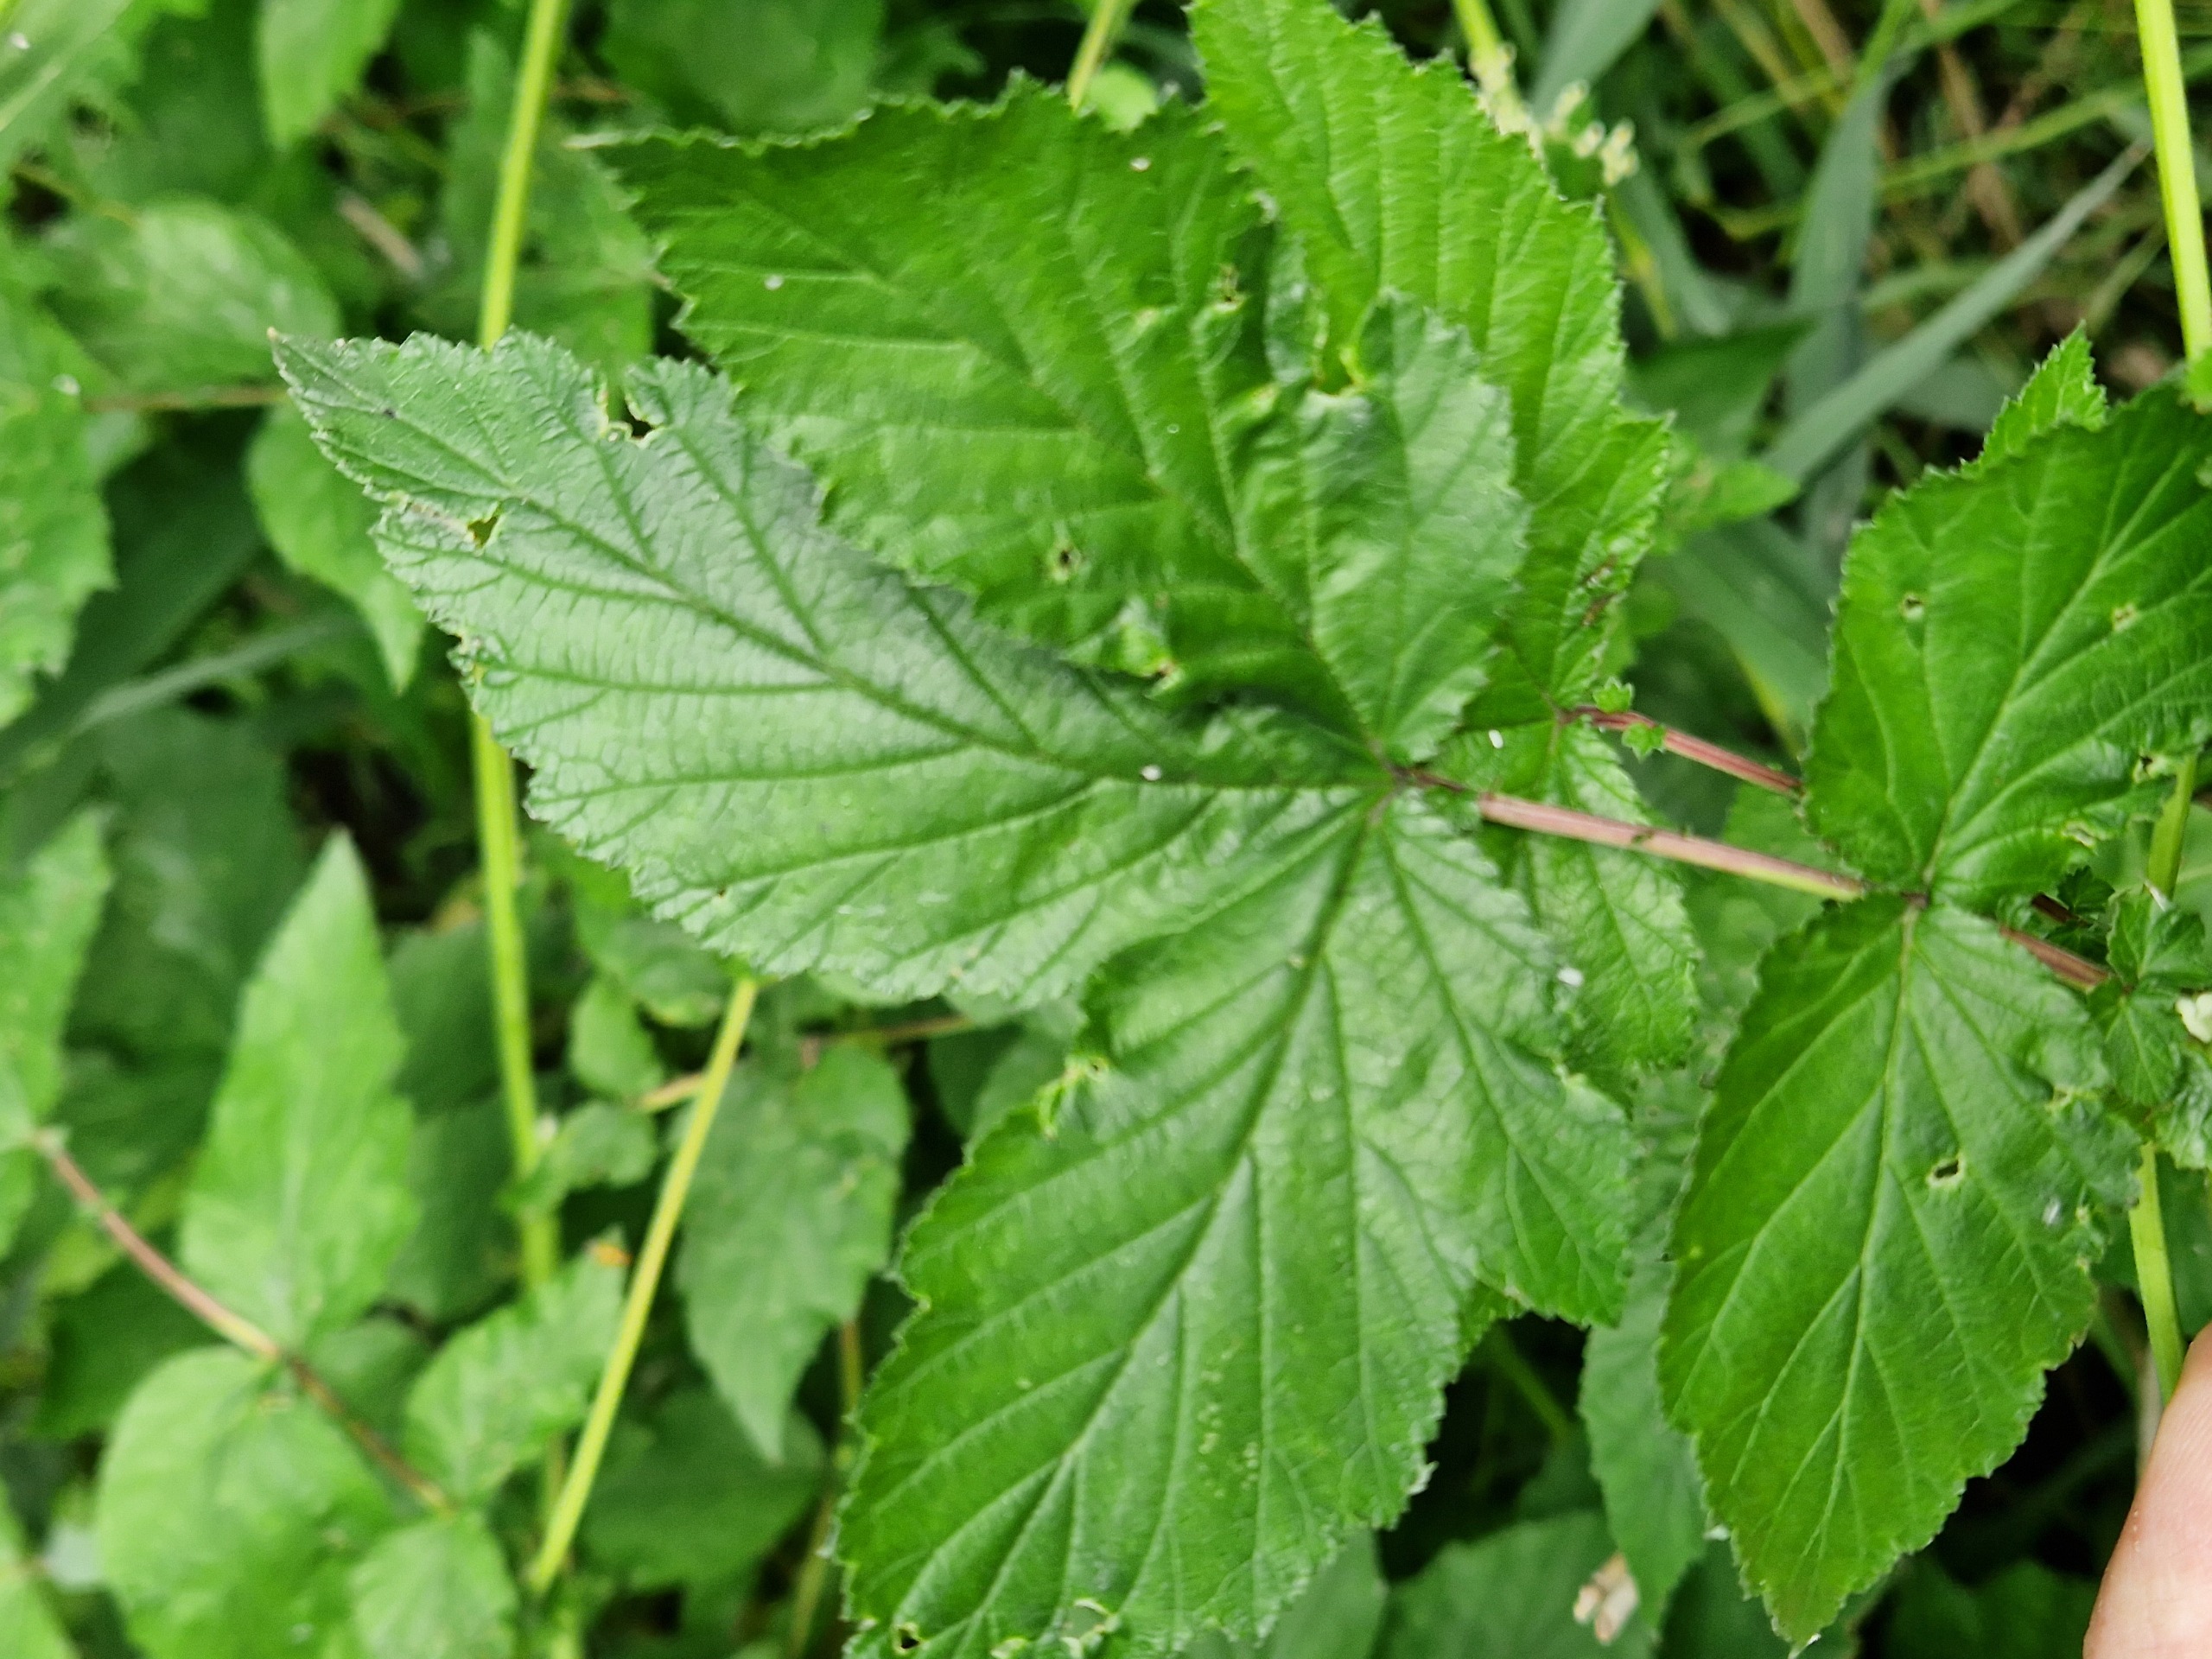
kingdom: Plantae
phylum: Tracheophyta
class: Magnoliopsida
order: Rosales
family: Rosaceae
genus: Filipendula
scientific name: Filipendula ulmaria
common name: Almindelig mjødurt
